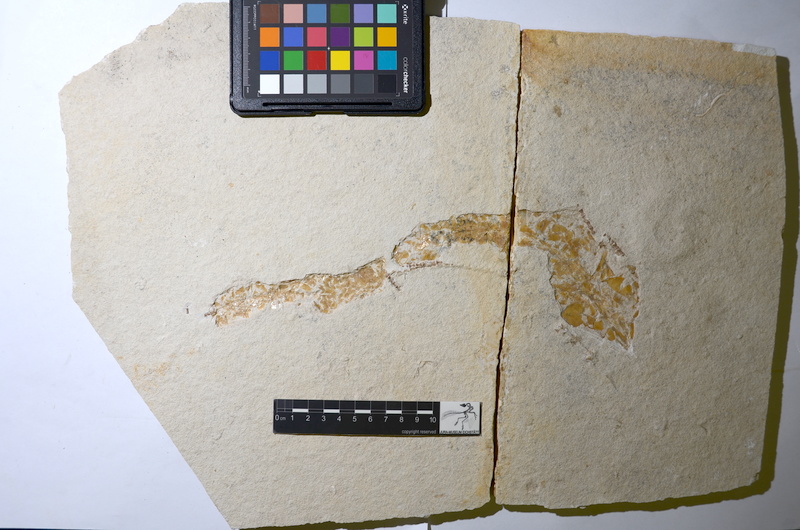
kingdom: Animalia
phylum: Chordata
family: Aspidorhynchidae
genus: Belonostomus
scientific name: Belonostomus
